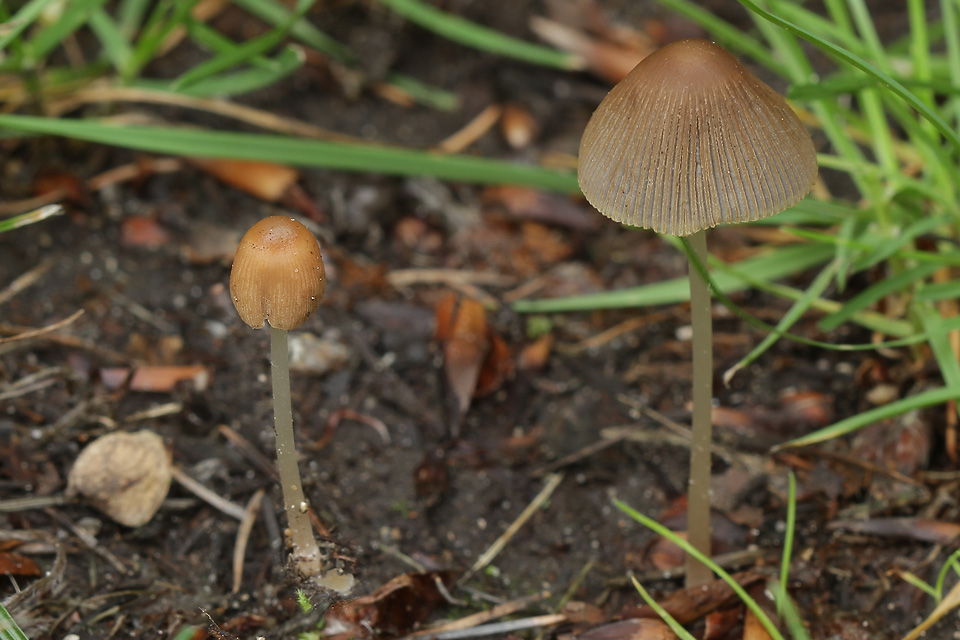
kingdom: Fungi
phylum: Basidiomycota
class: Agaricomycetes
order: Agaricales
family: Psathyrellaceae
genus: Parasola
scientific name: Parasola auricoma
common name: hansens hjulhat
